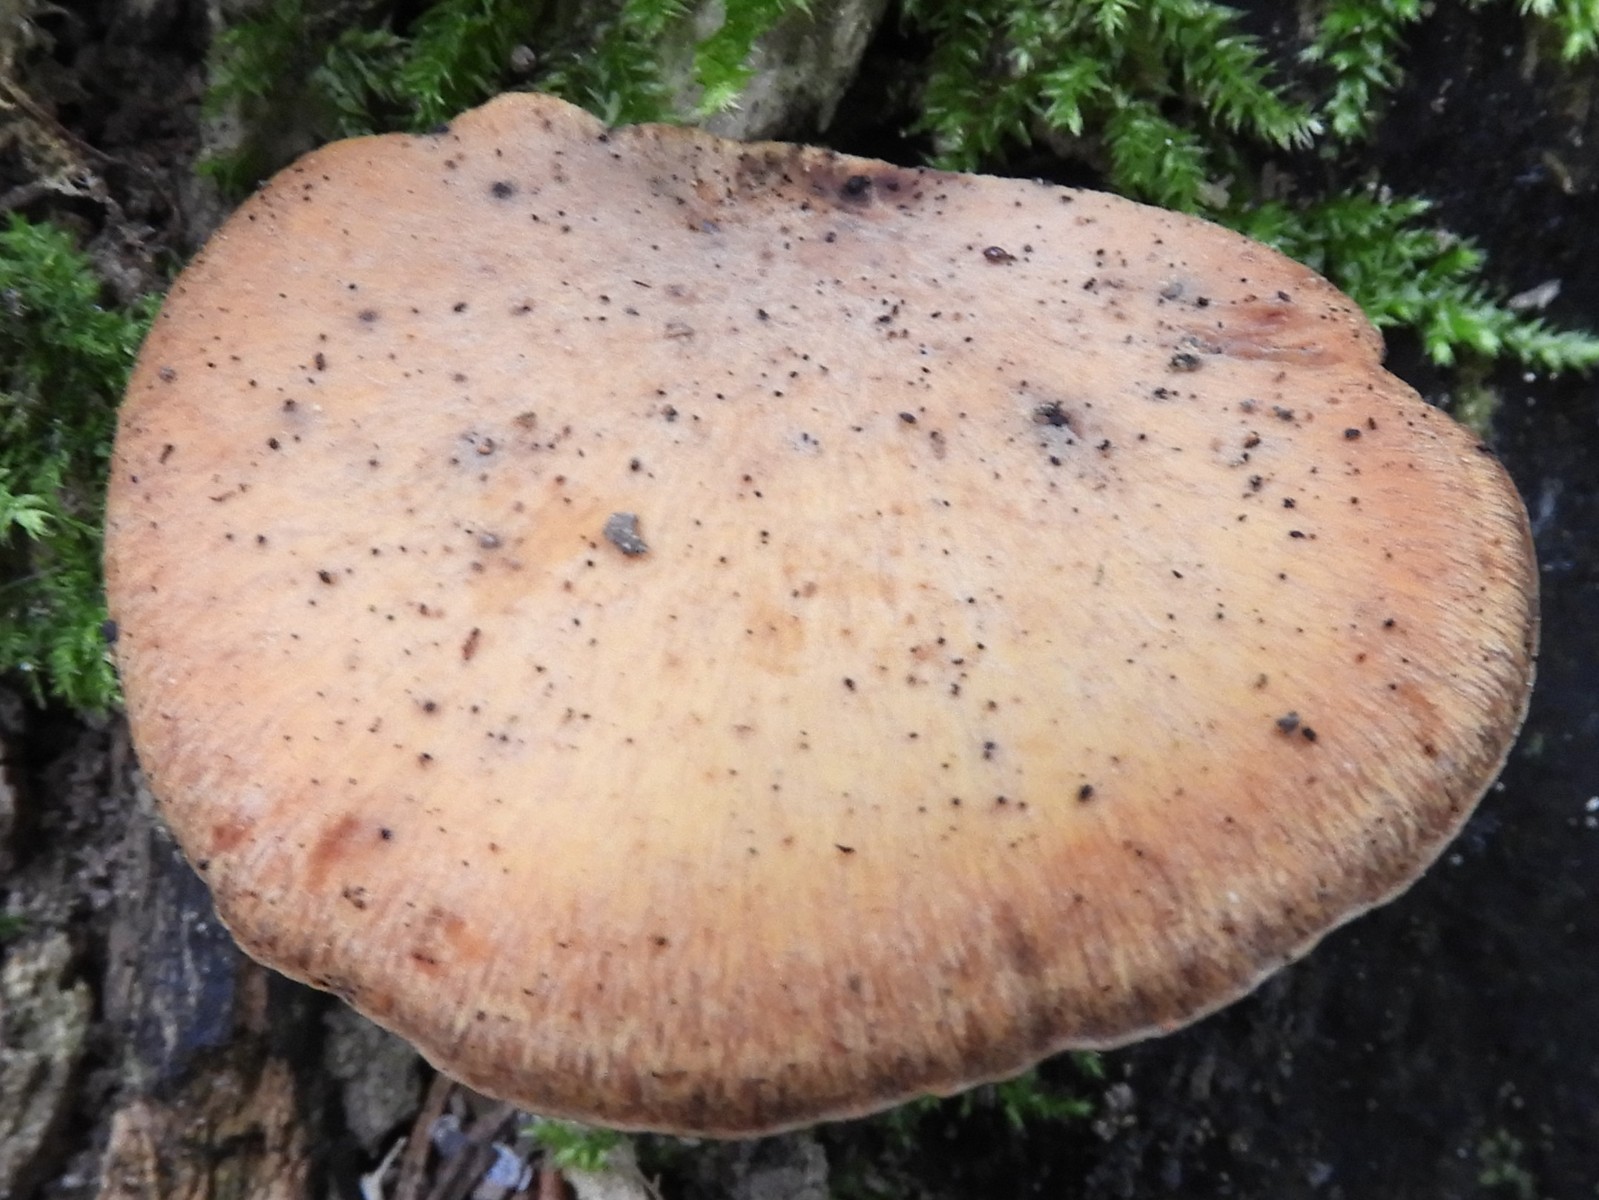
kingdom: Fungi
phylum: Basidiomycota
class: Agaricomycetes
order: Polyporales
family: Polyporaceae
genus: Cerioporus
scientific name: Cerioporus varius
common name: foranderlig stilkporesvamp
